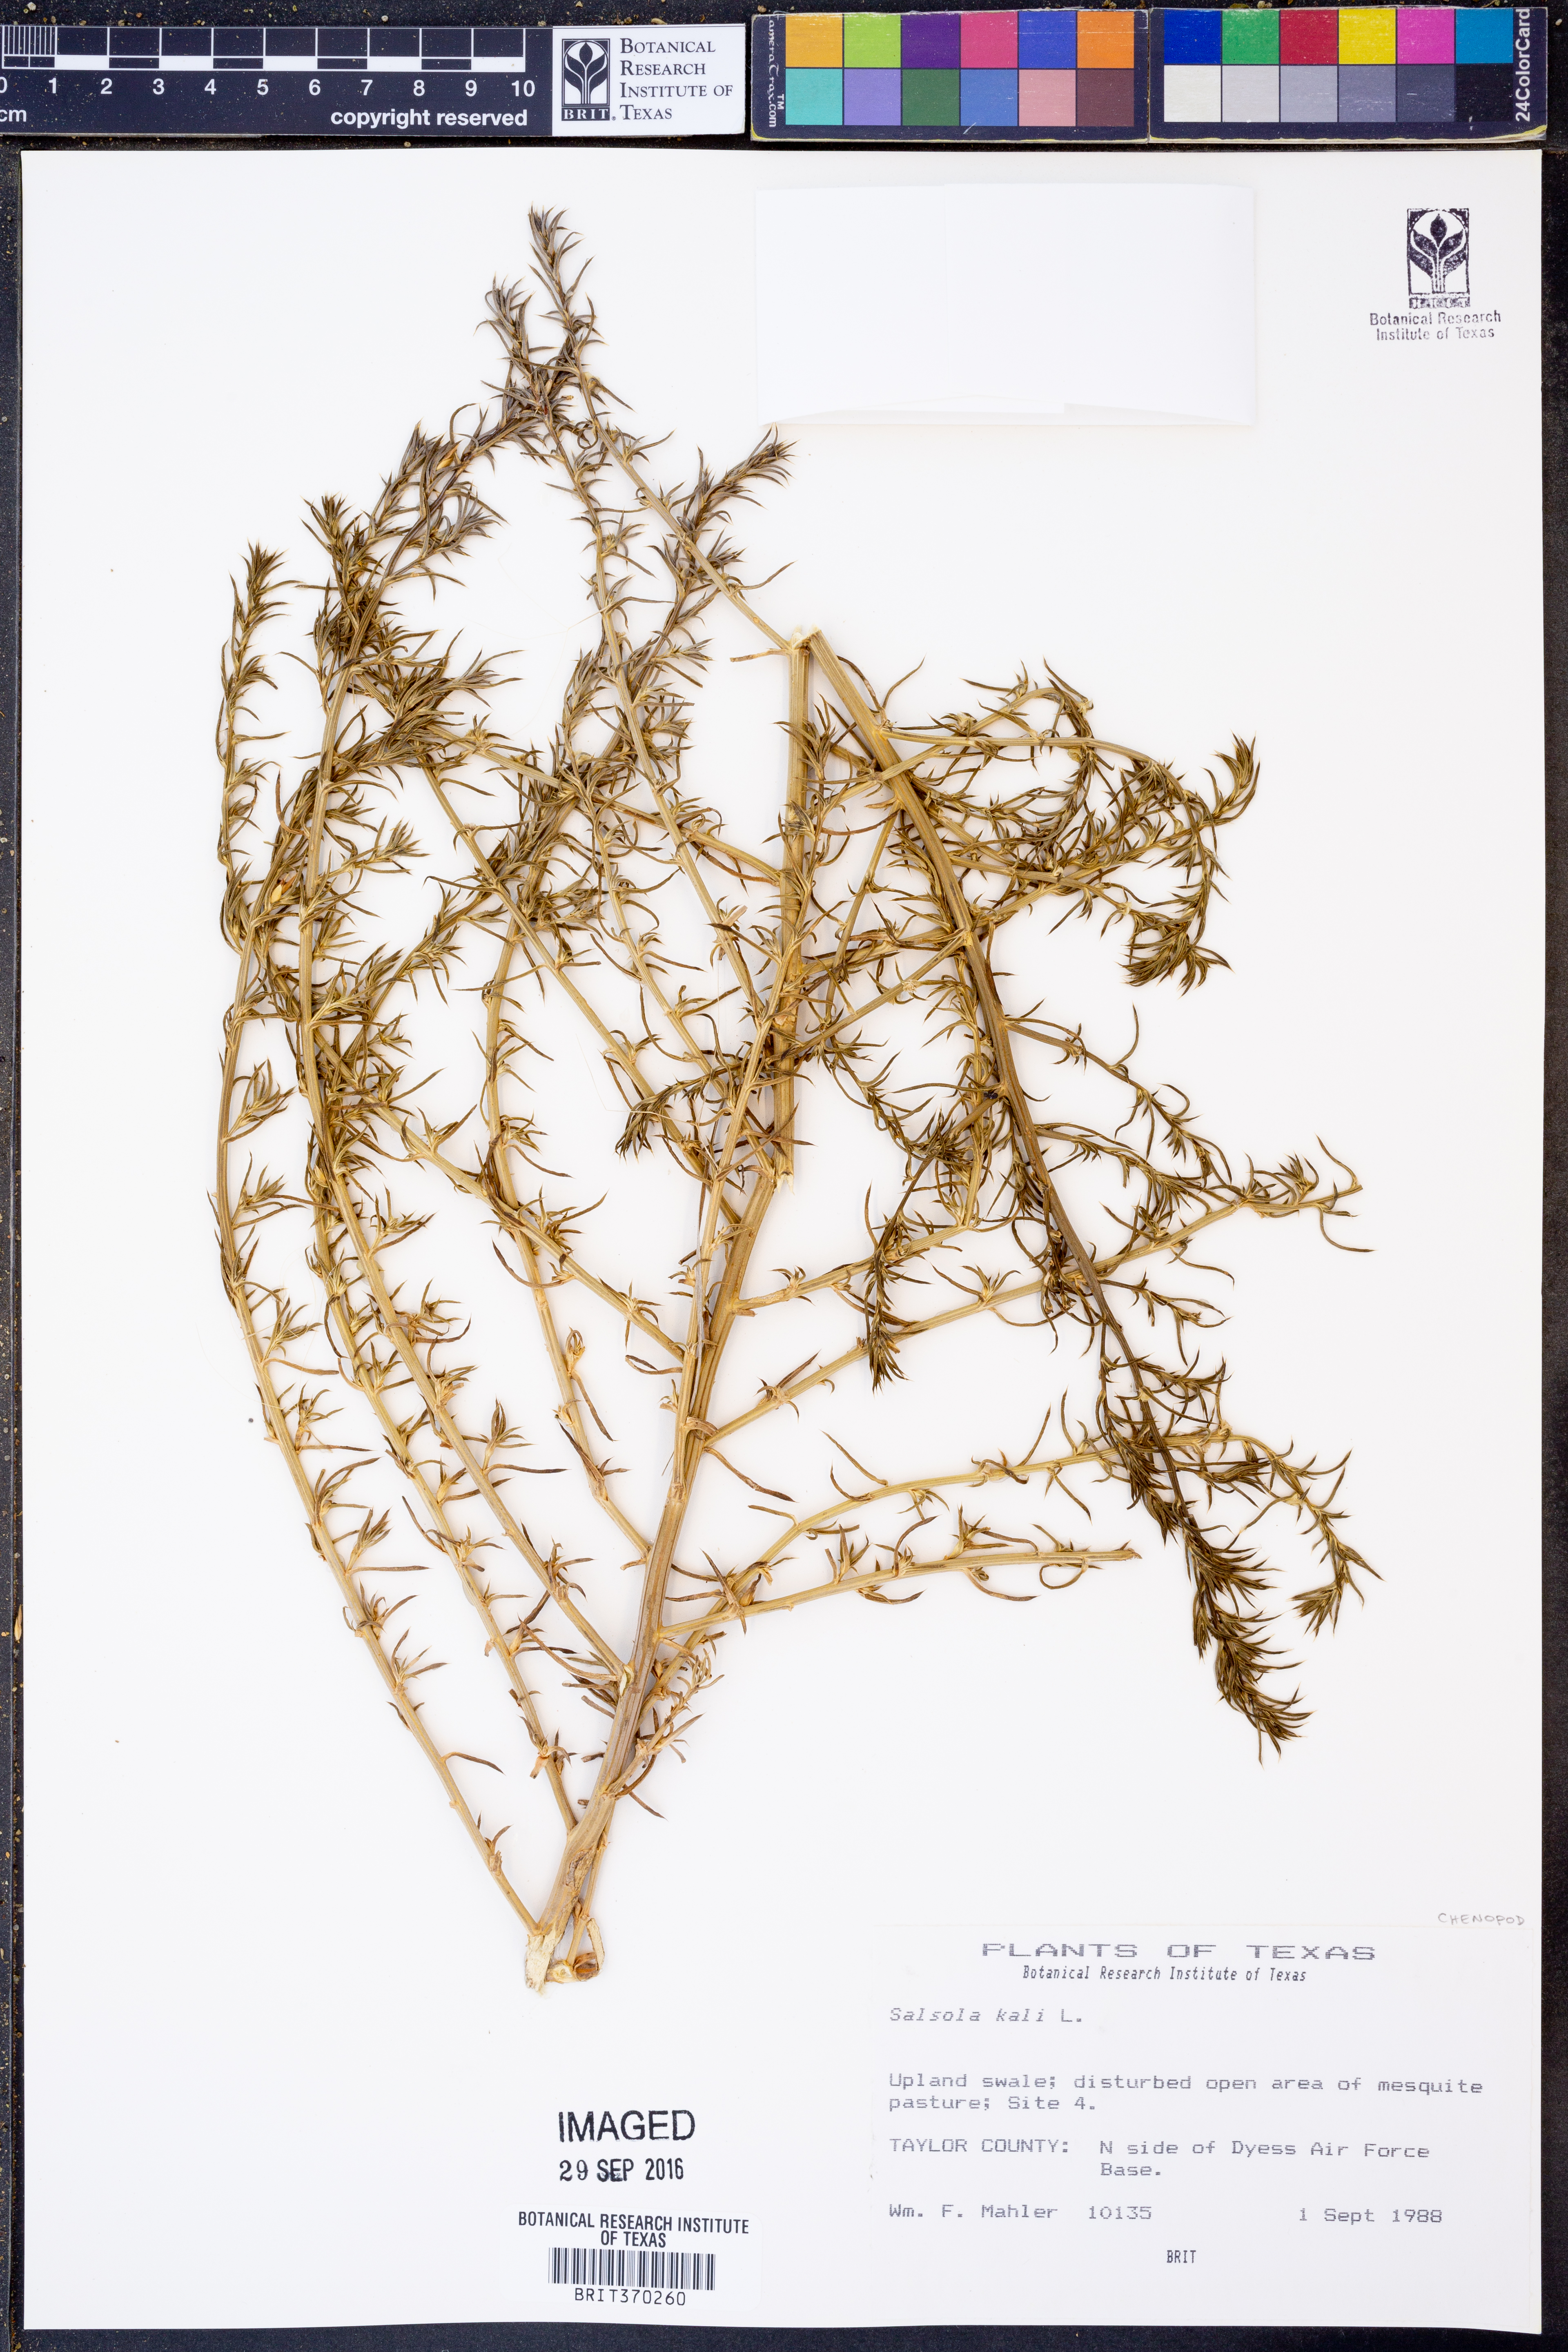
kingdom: Plantae
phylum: Tracheophyta
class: Magnoliopsida
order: Caryophyllales
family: Amaranthaceae
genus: Salsola
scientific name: Salsola tragus
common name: Prickly russian thistle
